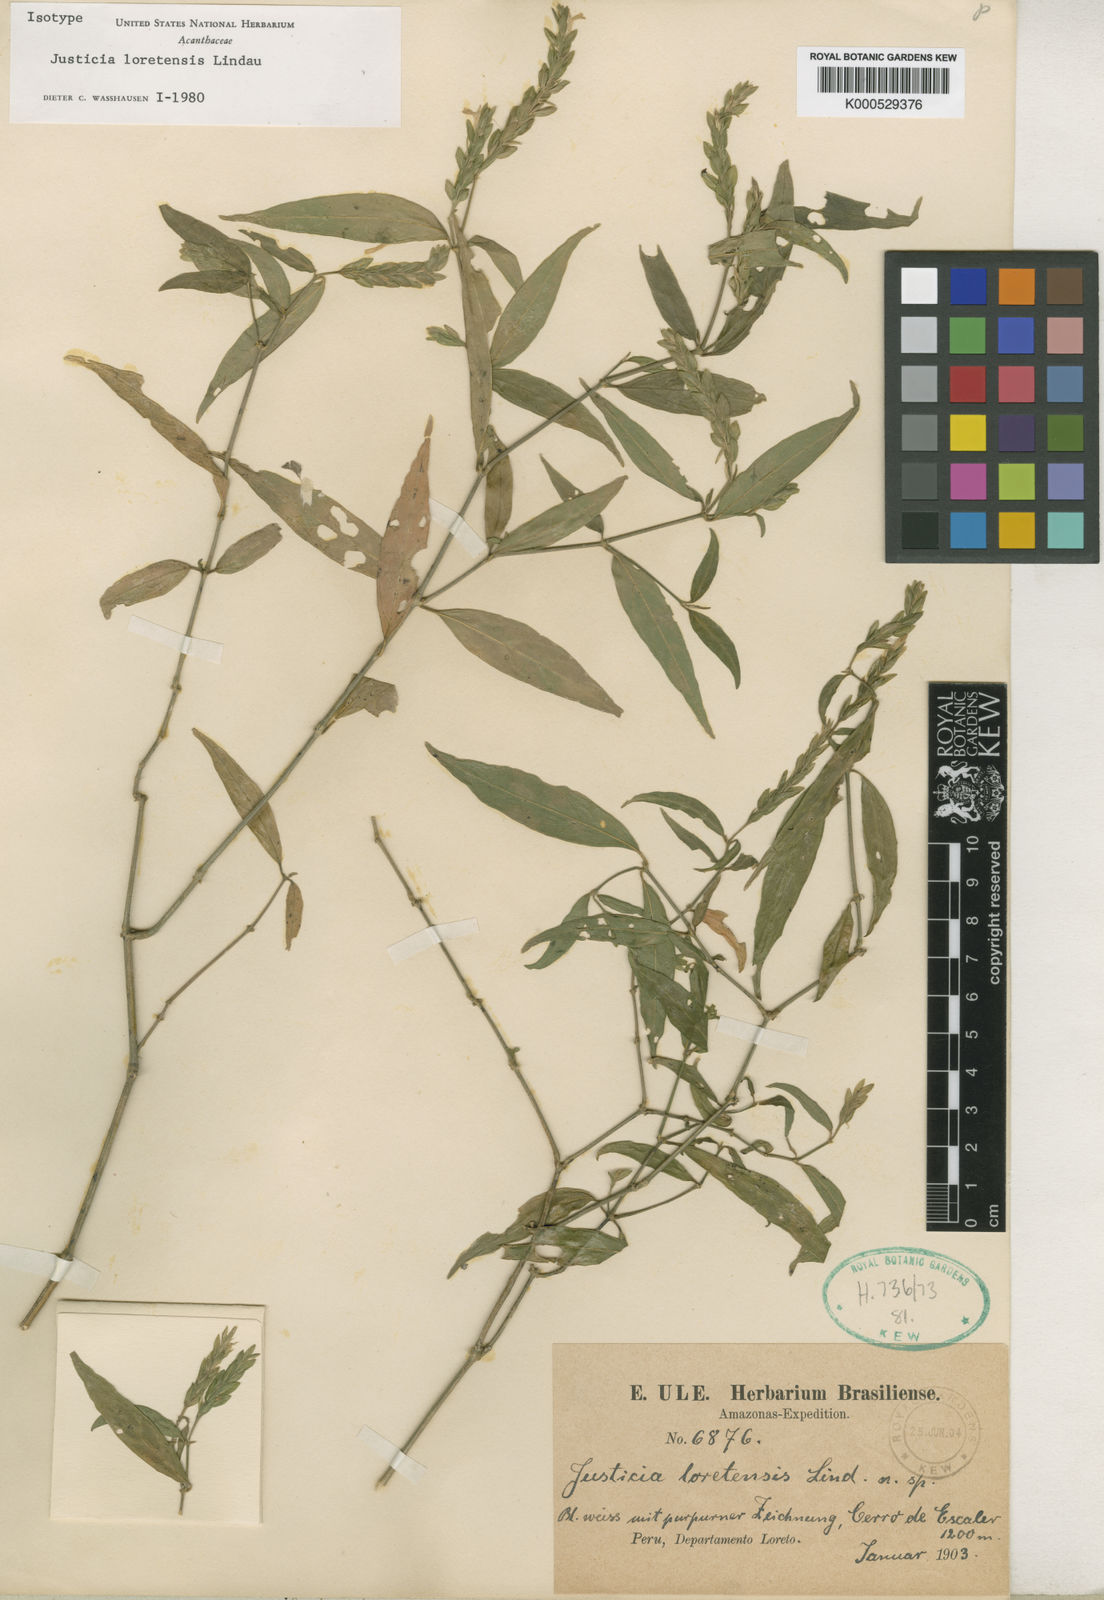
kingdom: Plantae
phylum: Tracheophyta
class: Magnoliopsida
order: Lamiales
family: Acanthaceae
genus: Justicia
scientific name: Justicia loretensis
